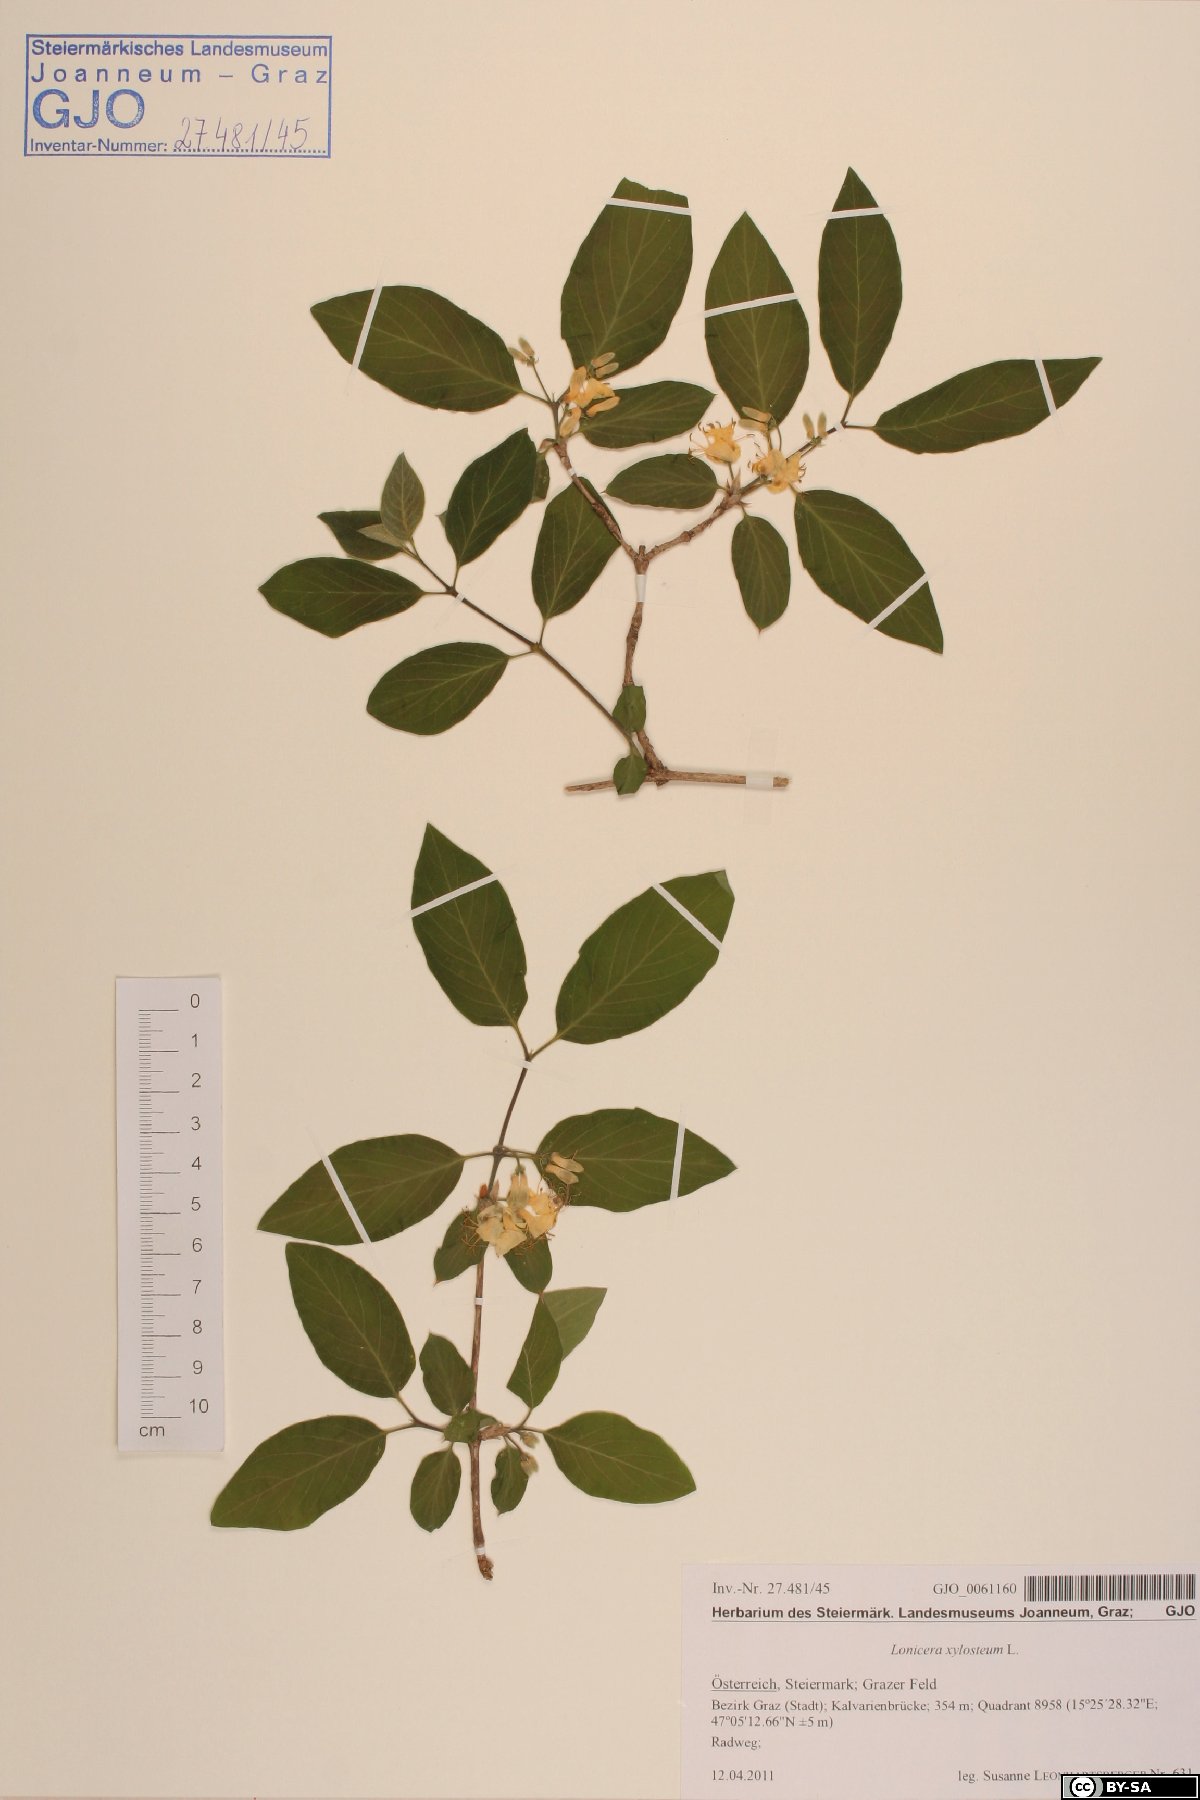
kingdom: Plantae
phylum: Tracheophyta
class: Magnoliopsida
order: Dipsacales
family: Caprifoliaceae
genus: Lonicera
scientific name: Lonicera xylosteum
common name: Fly honeysuckle
